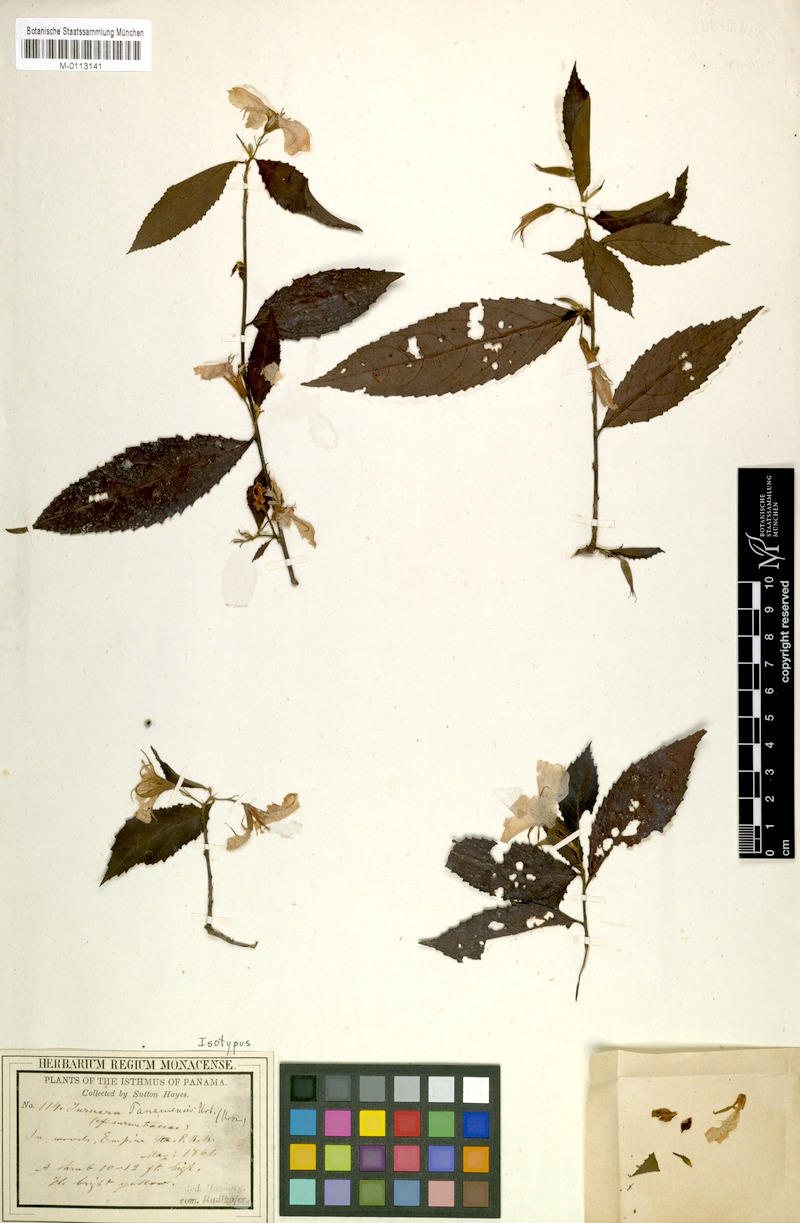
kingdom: Plantae
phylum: Tracheophyta
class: Magnoliopsida
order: Malpighiales
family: Turneraceae
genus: Turnera
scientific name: Turnera panamensis
